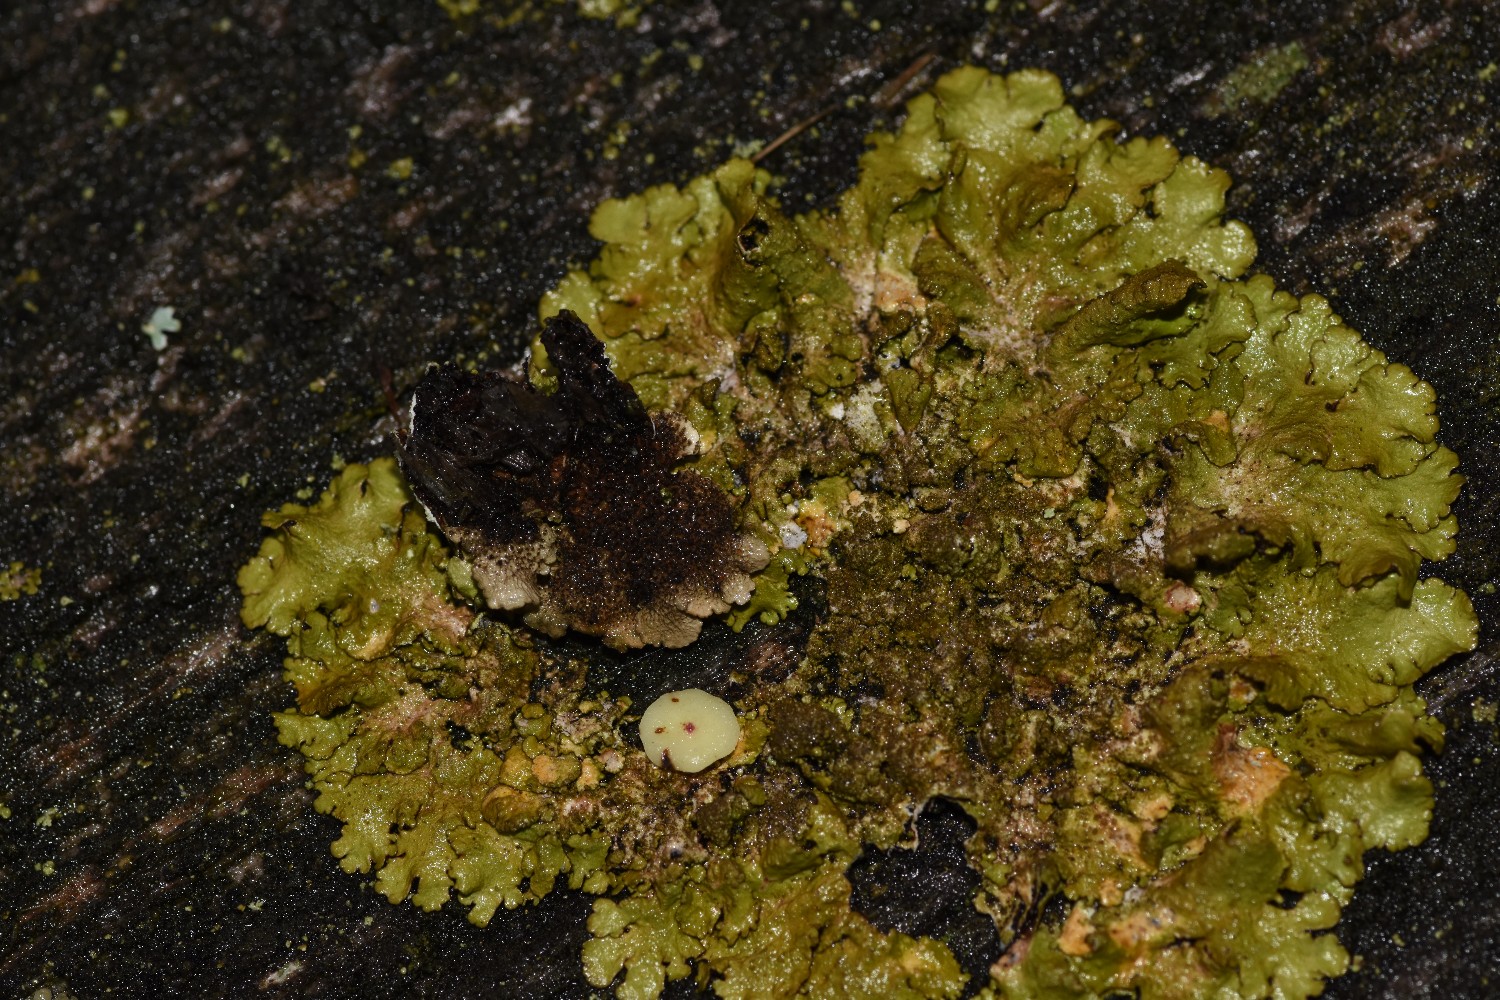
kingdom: Fungi
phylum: Ascomycota
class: Lecanoromycetes
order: Lecanorales
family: Parmeliaceae
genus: Melanelixia
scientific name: Melanelixia glabratula
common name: glinsende skållav
